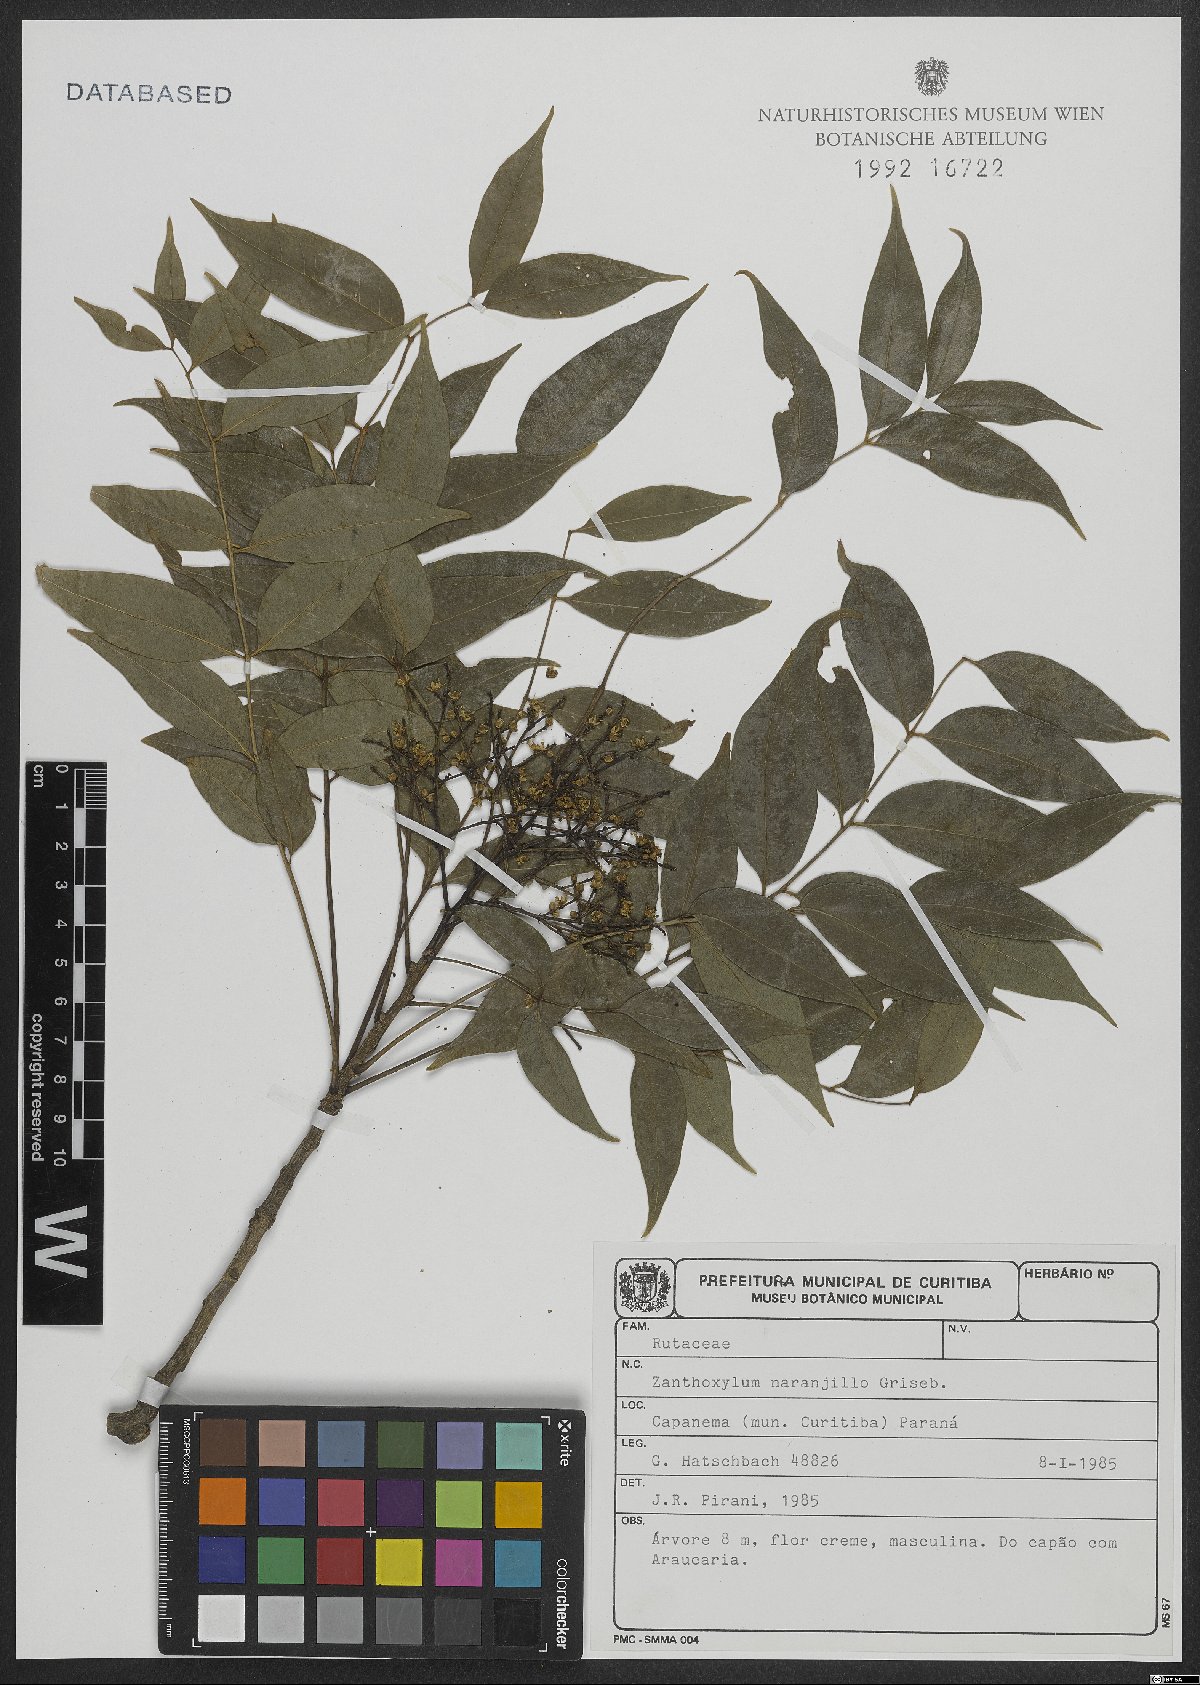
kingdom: Plantae
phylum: Tracheophyta
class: Magnoliopsida
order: Sapindales
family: Rutaceae
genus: Zanthoxylum
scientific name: Zanthoxylum petiolare
